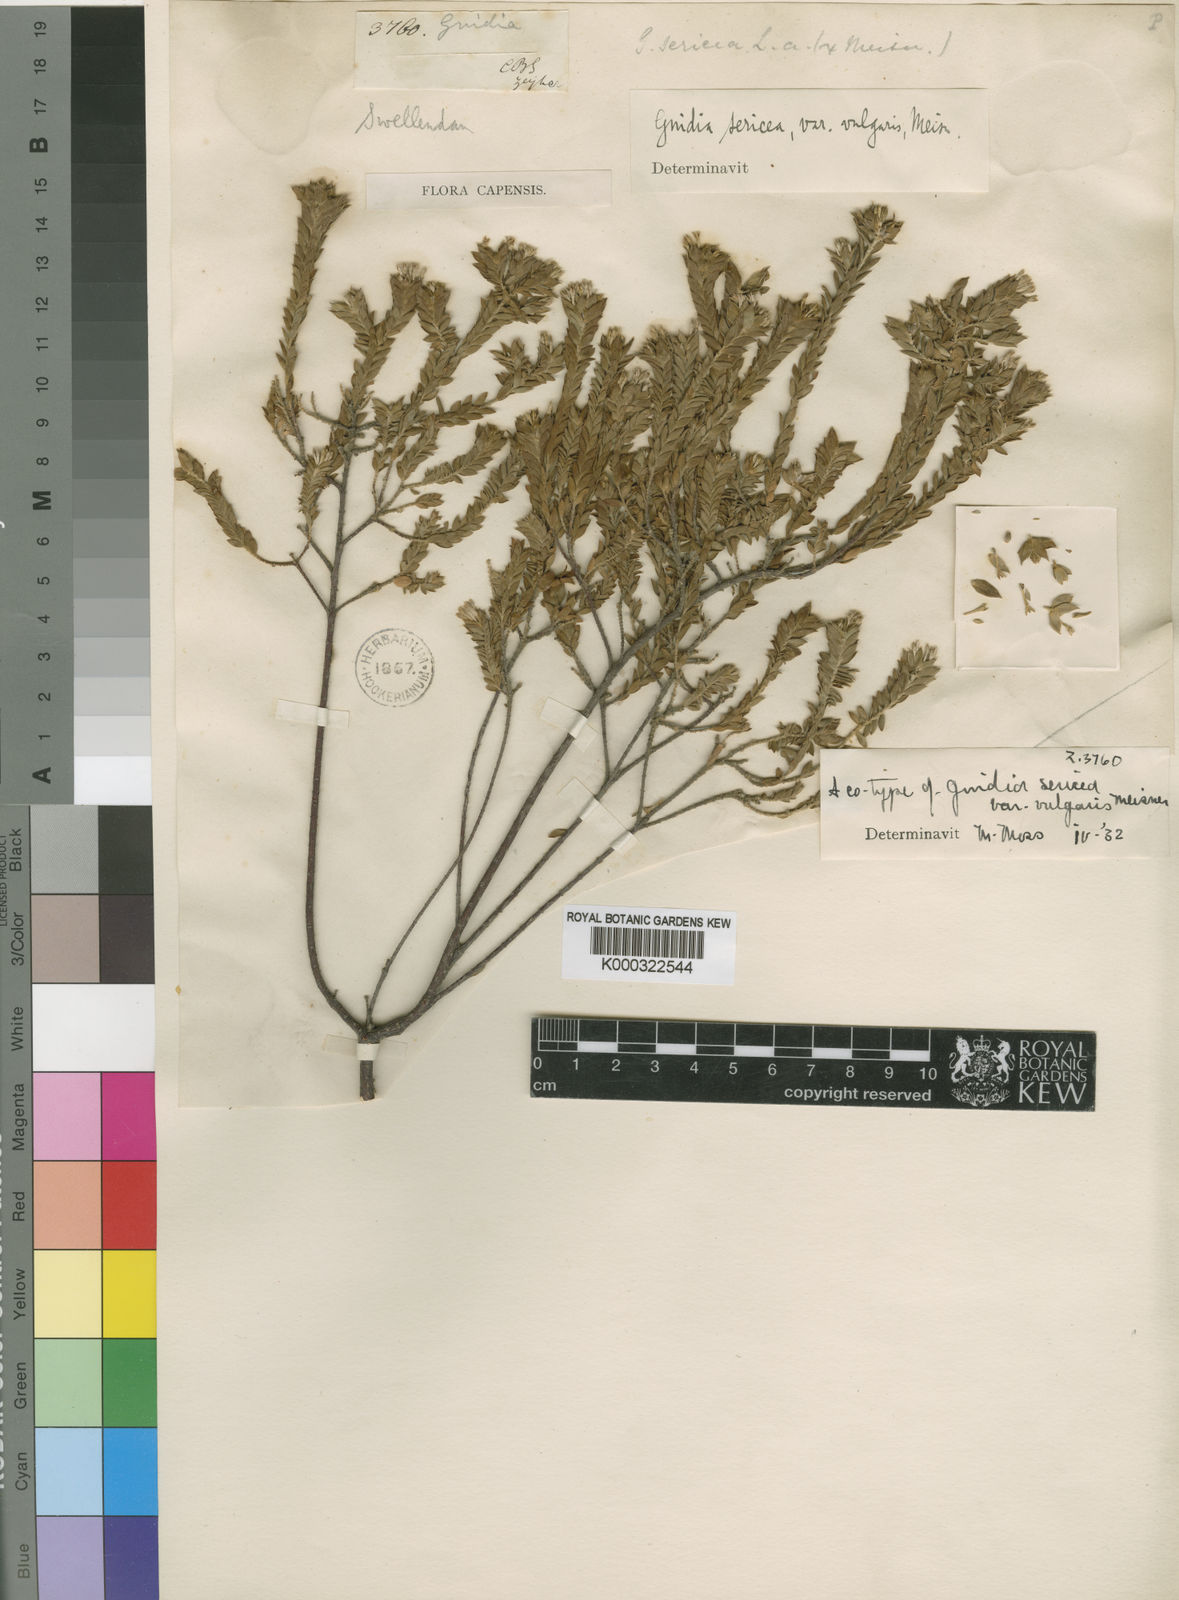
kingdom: Plantae
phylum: Tracheophyta
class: Magnoliopsida
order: Malvales
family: Thymelaeaceae
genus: Gnidia
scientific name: Gnidia sericea
